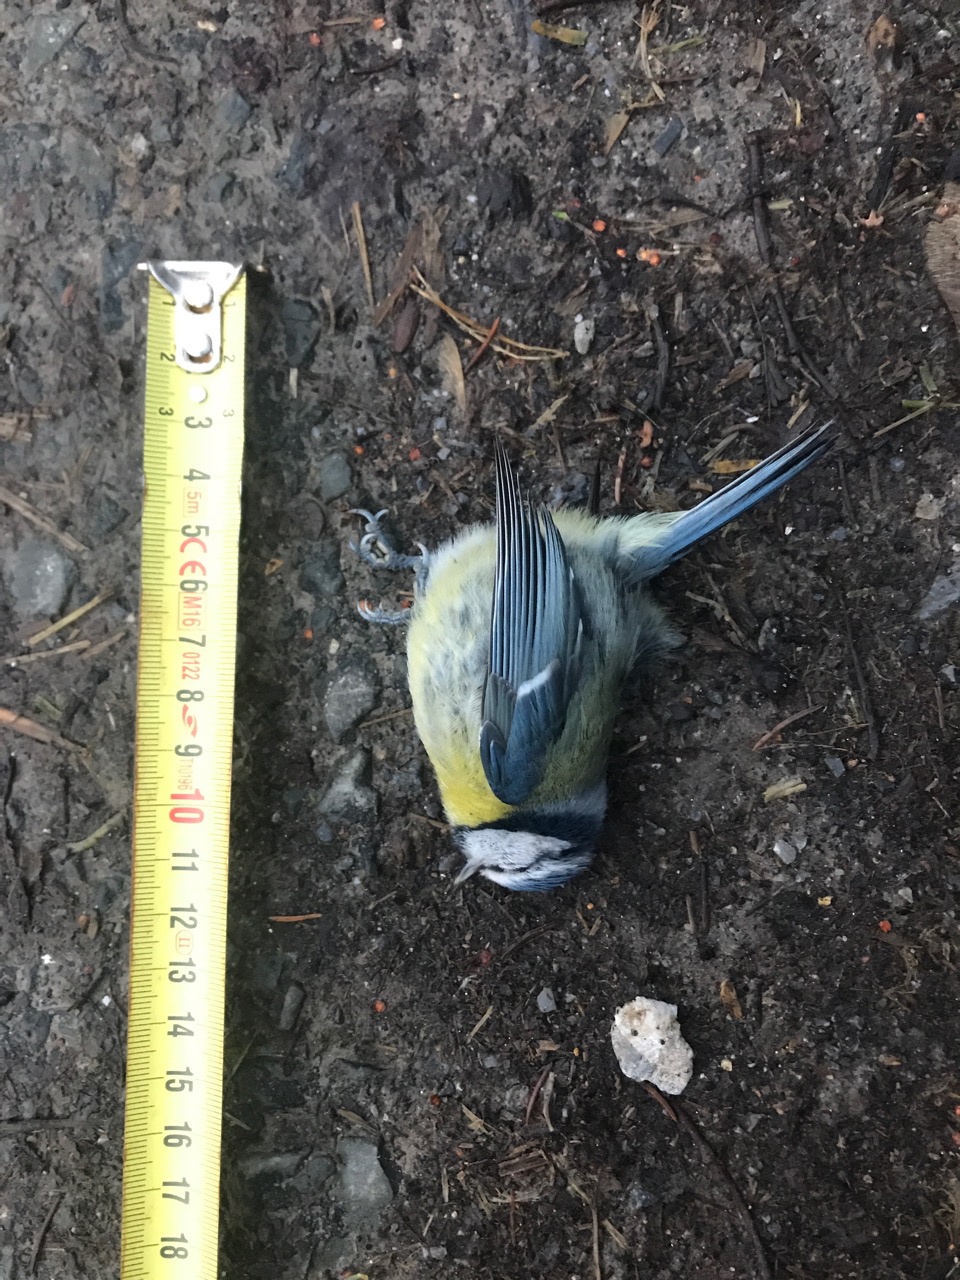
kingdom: Animalia
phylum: Chordata
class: Aves
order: Passeriformes
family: Paridae
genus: Cyanistes
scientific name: Cyanistes caeruleus
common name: Eurasian blue tit
